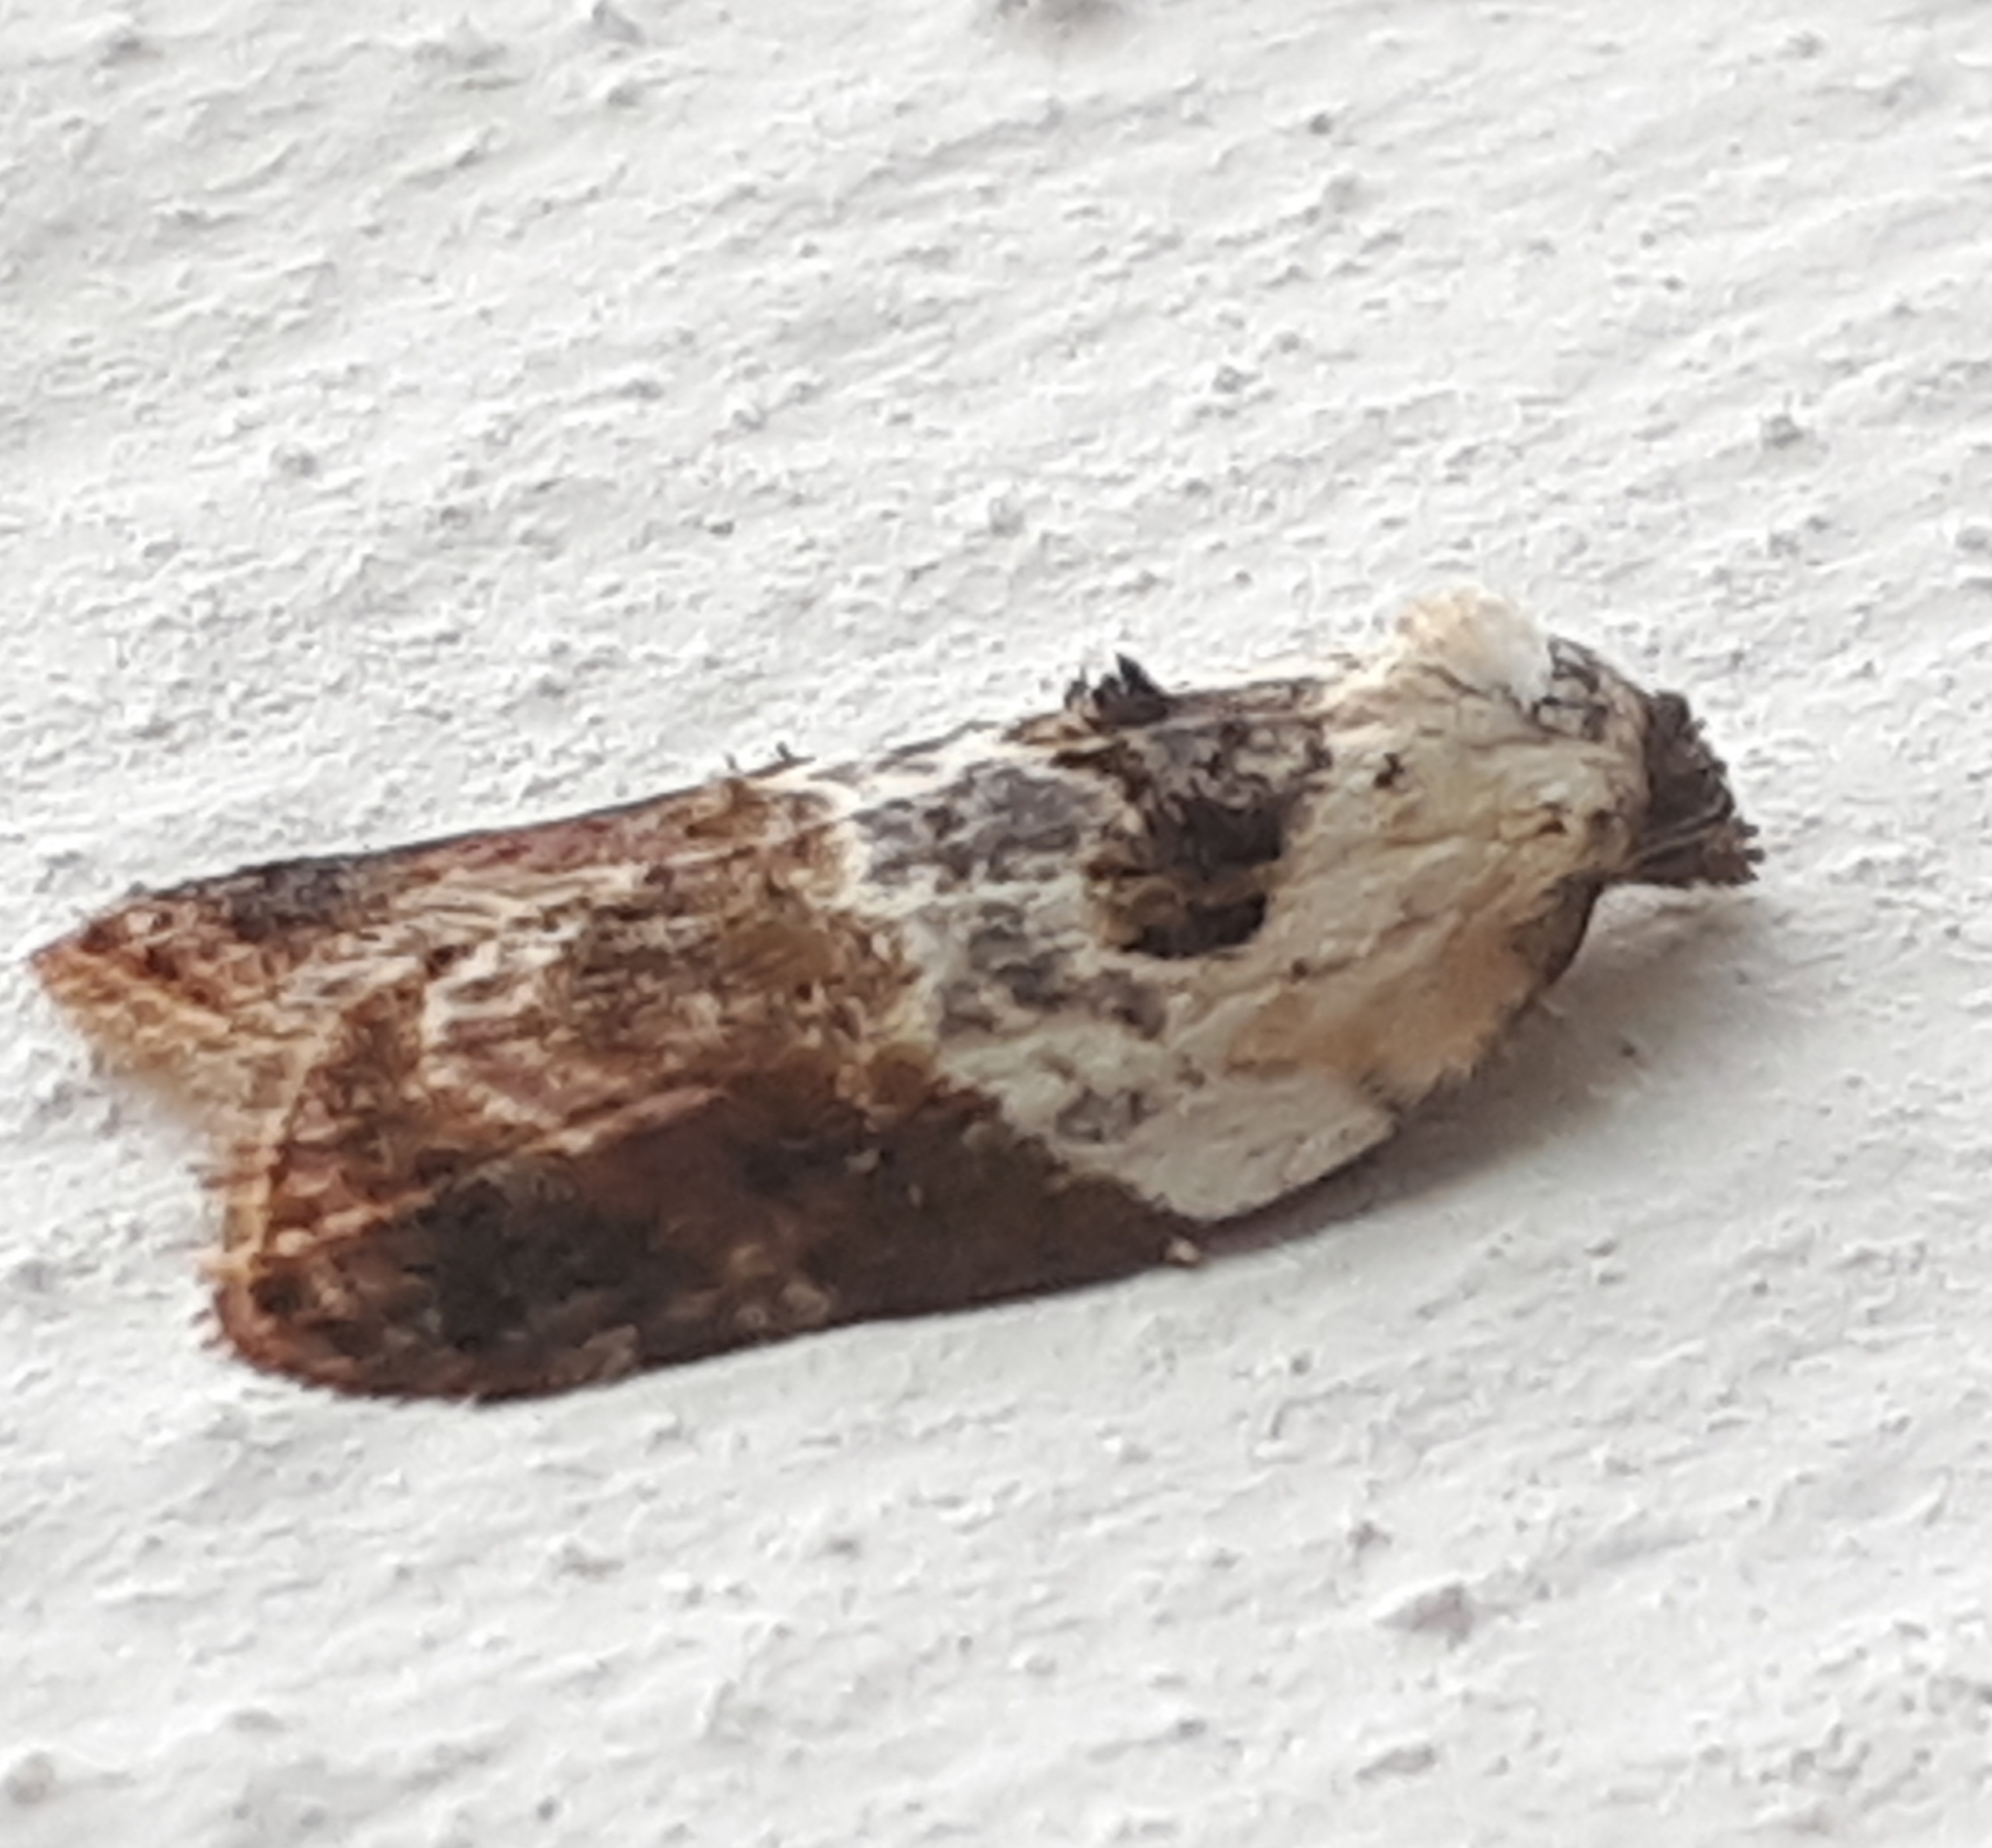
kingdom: Animalia
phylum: Arthropoda
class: Insecta
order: Lepidoptera
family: Tortricidae
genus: Acleris
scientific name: Acleris variegana
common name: Hvidbroget rosenvikler
